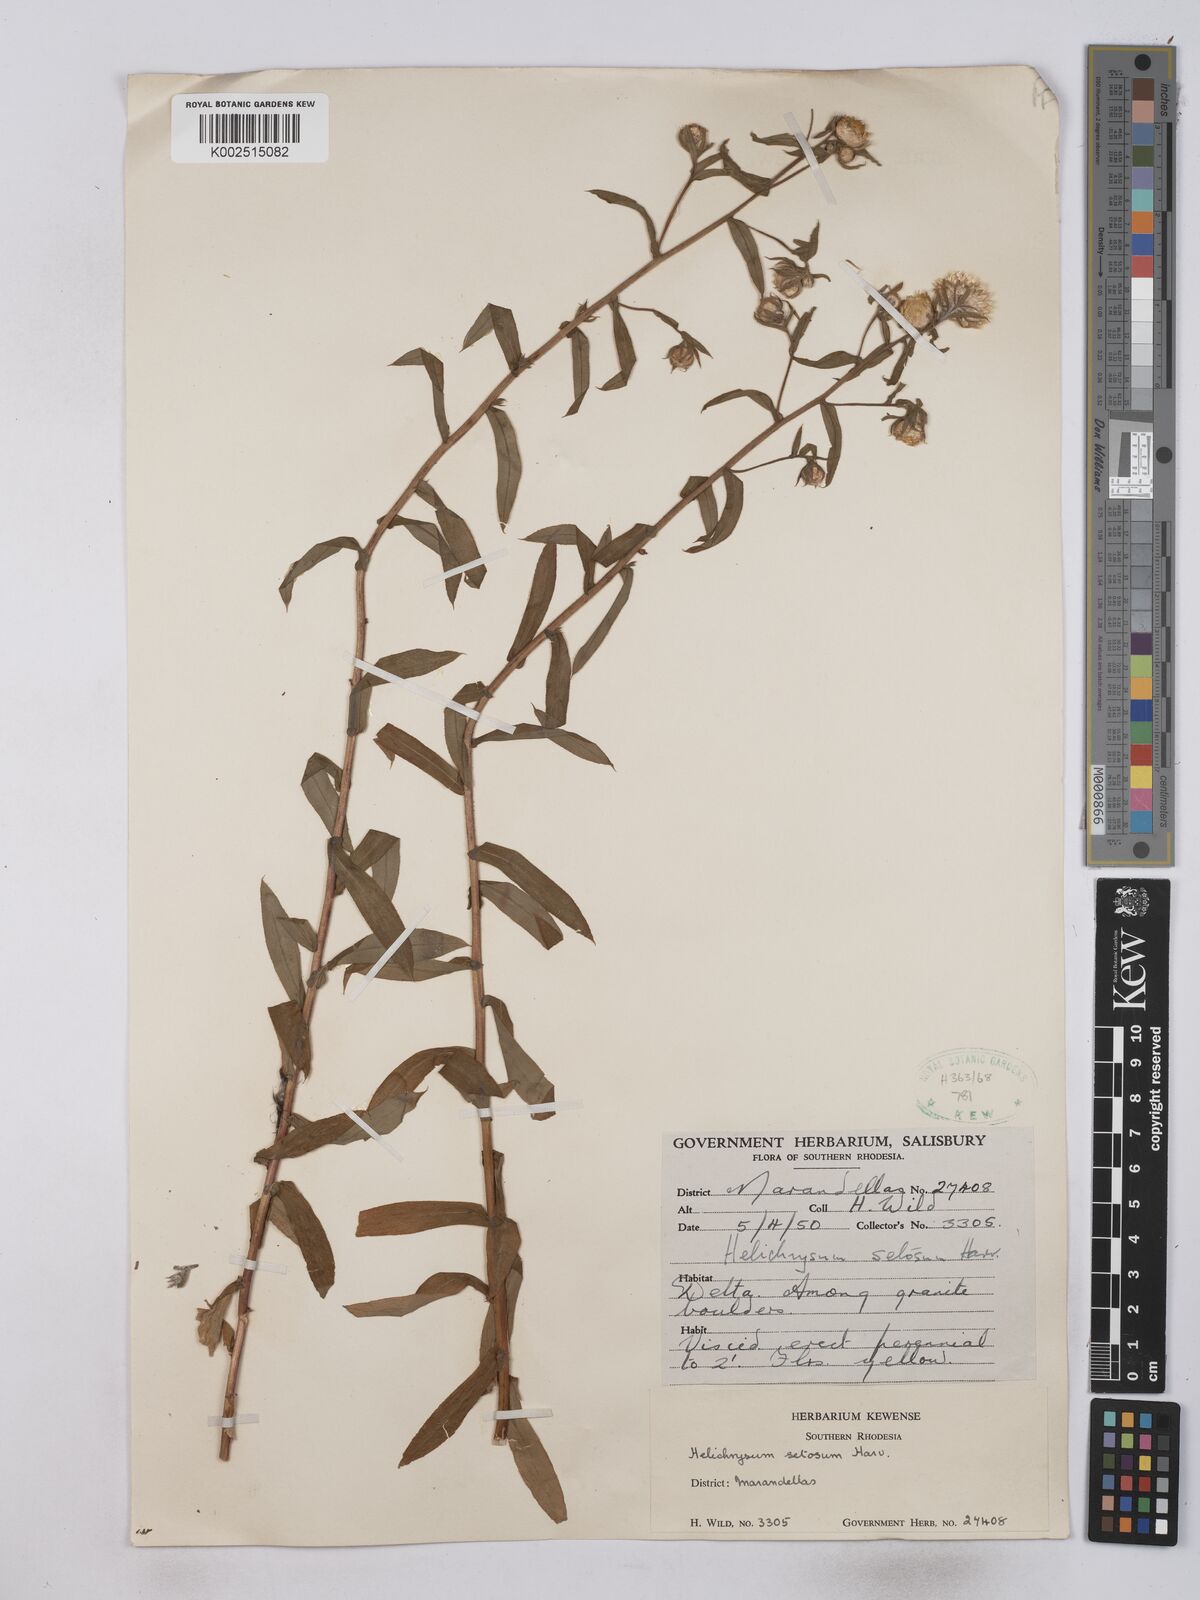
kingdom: Plantae
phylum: Tracheophyta
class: Magnoliopsida
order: Asterales
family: Asteraceae
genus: Helichrysum
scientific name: Helichrysum setosum
